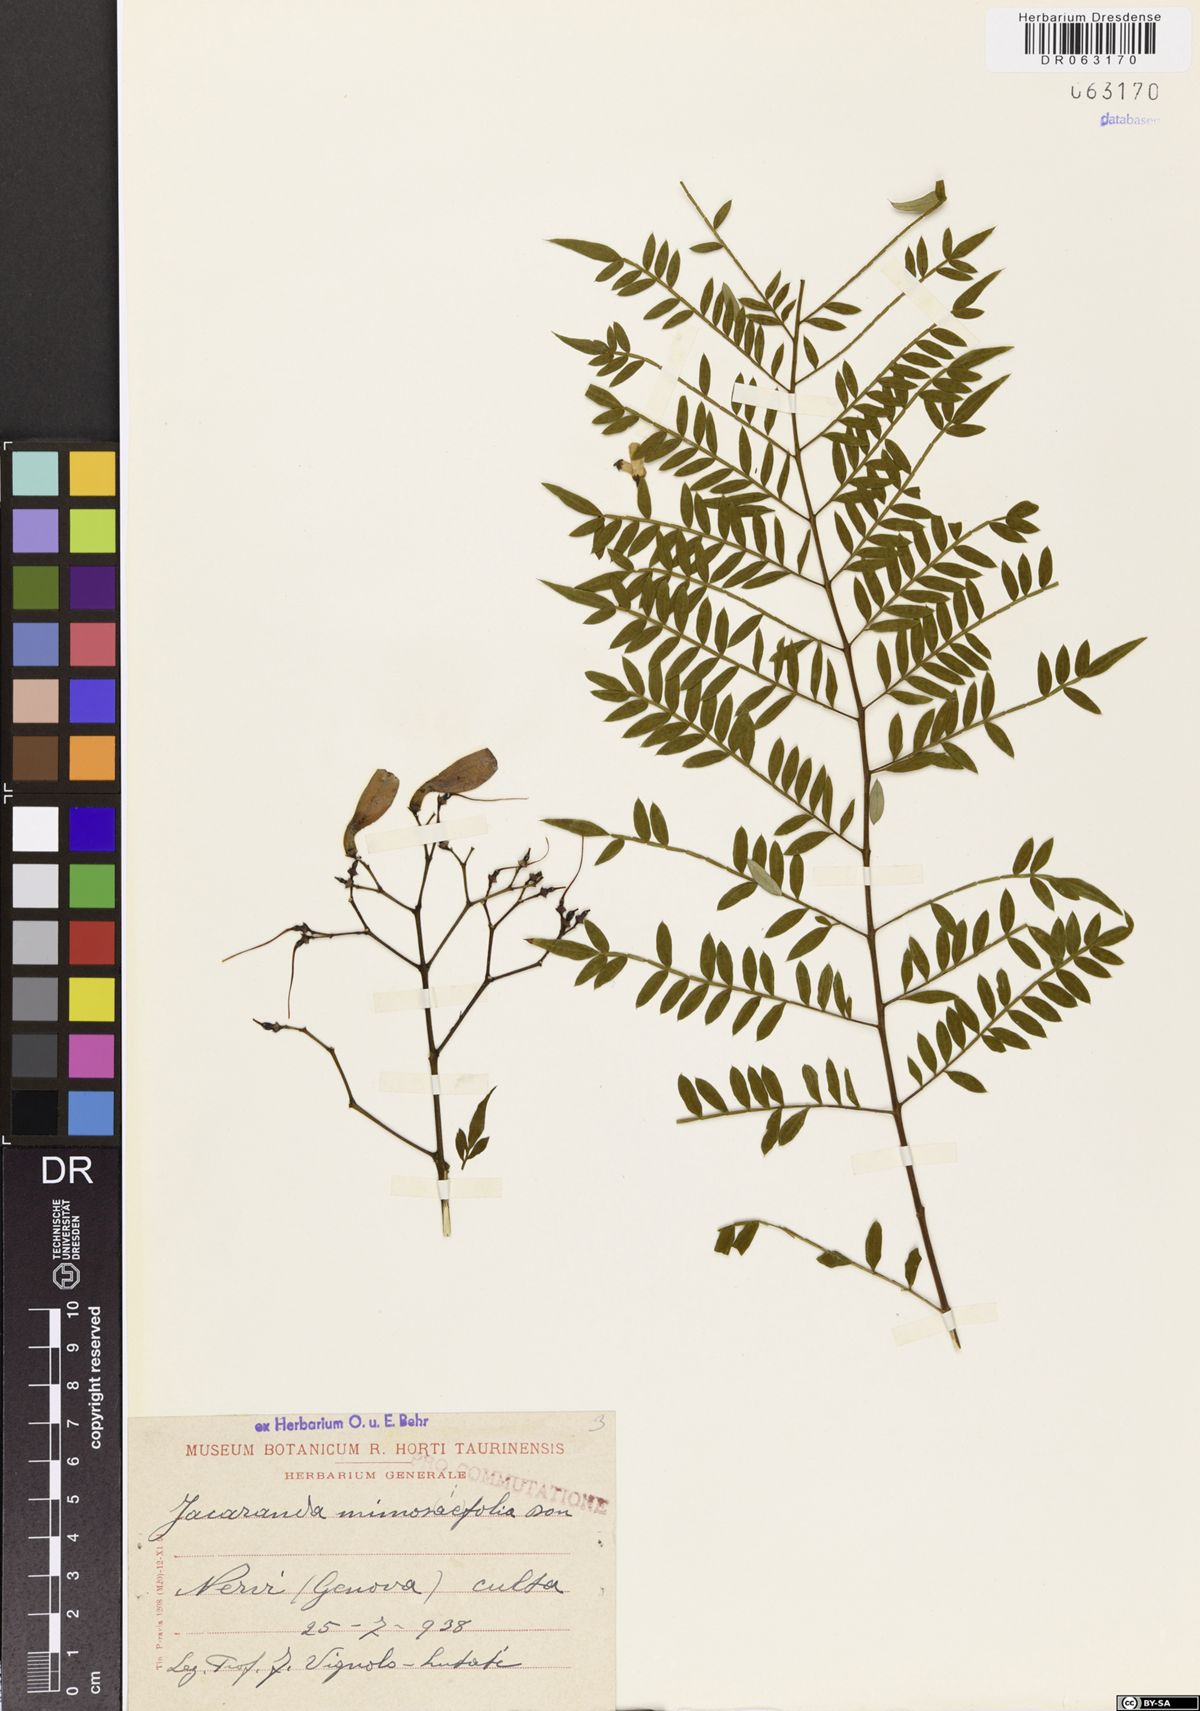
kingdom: Plantae
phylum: Tracheophyta
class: Magnoliopsida
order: Lamiales
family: Bignoniaceae
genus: Jacaranda
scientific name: Jacaranda mimosifolia
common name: Black poui
